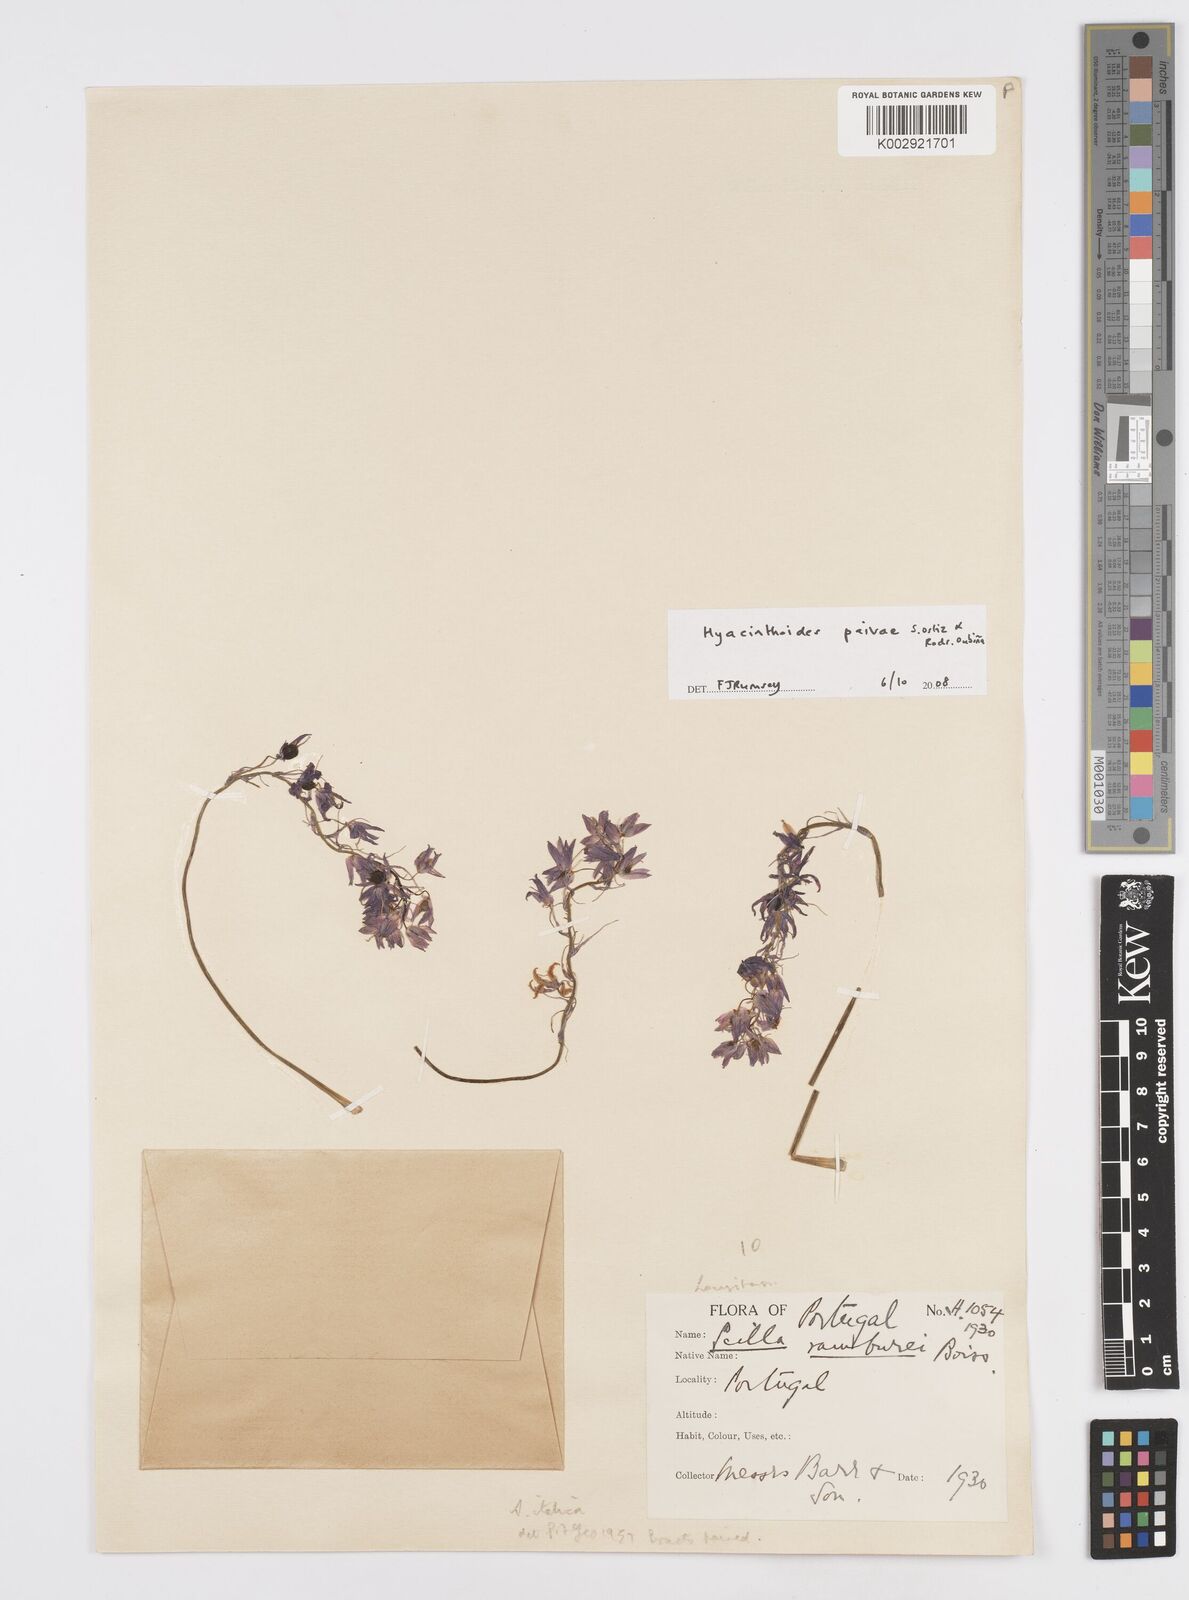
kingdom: Plantae
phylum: Tracheophyta
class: Liliopsida
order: Asparagales
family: Asparagaceae
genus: Hyacinthoides
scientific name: Hyacinthoides paivae
